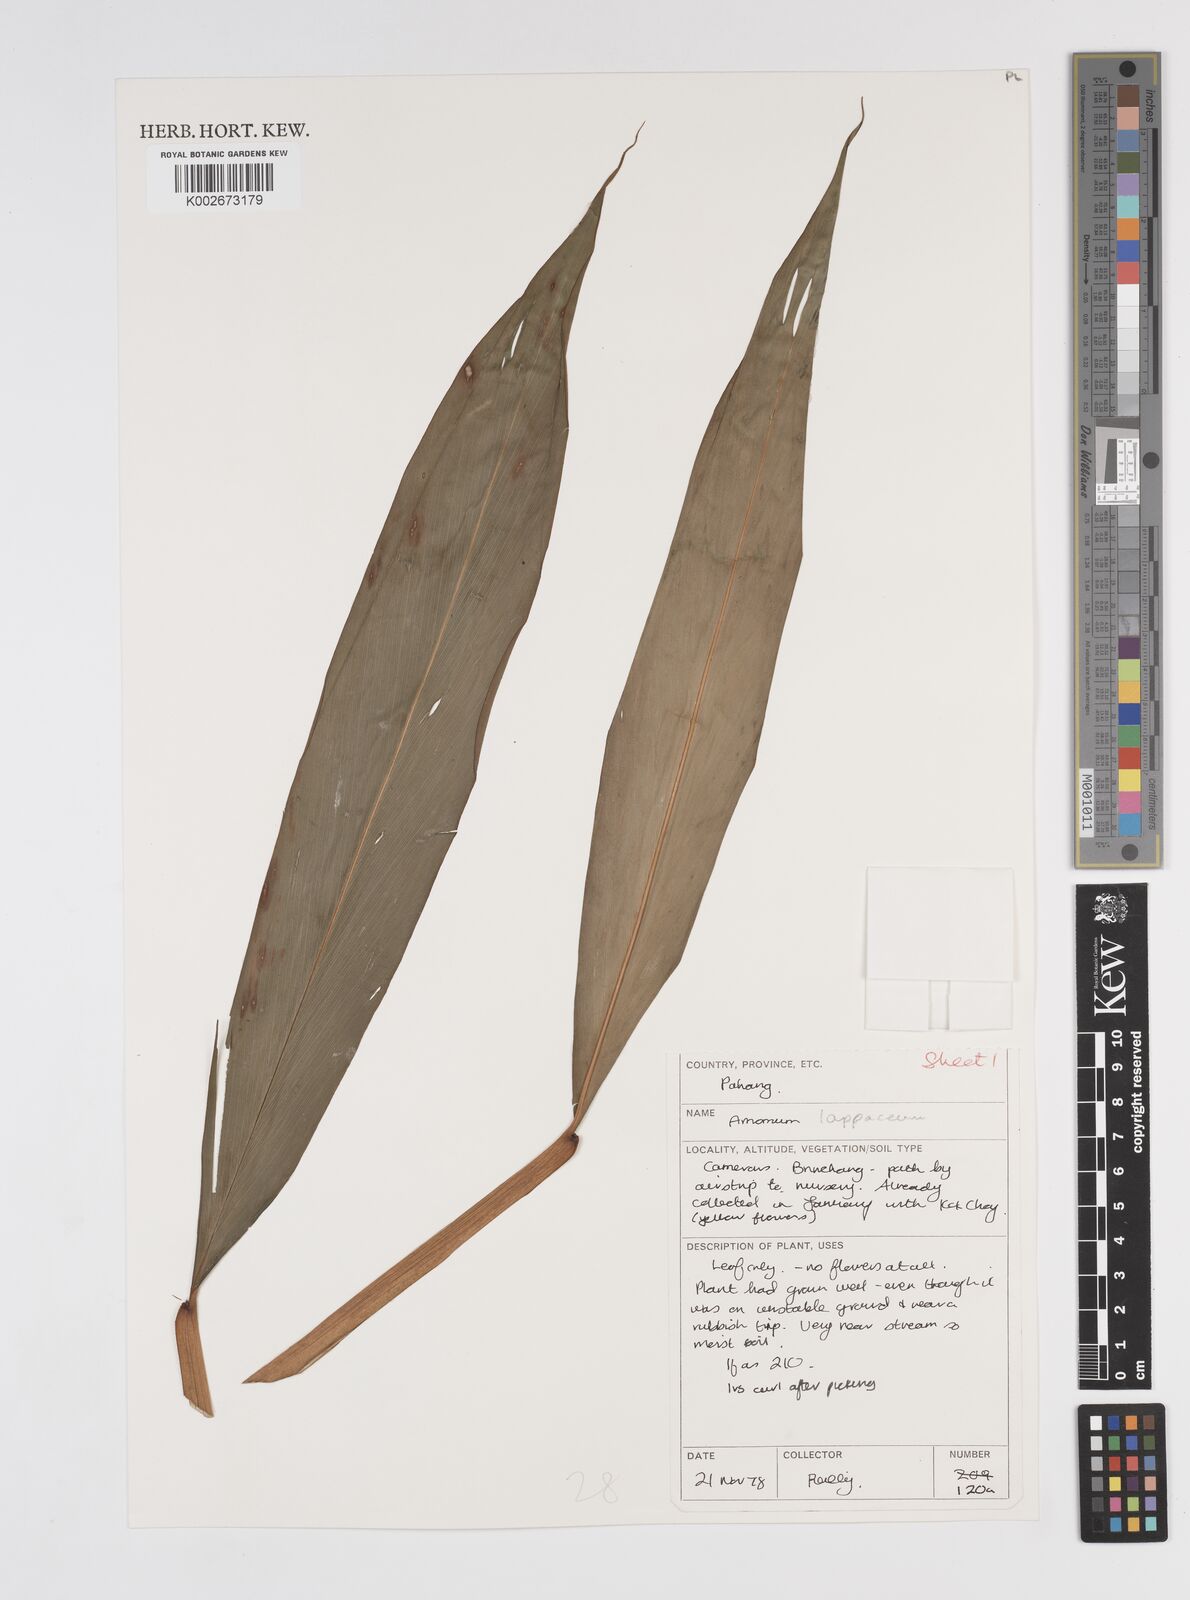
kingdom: Plantae
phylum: Tracheophyta
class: Liliopsida
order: Zingiberales
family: Zingiberaceae
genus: Meistera
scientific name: Meistera lappacea
